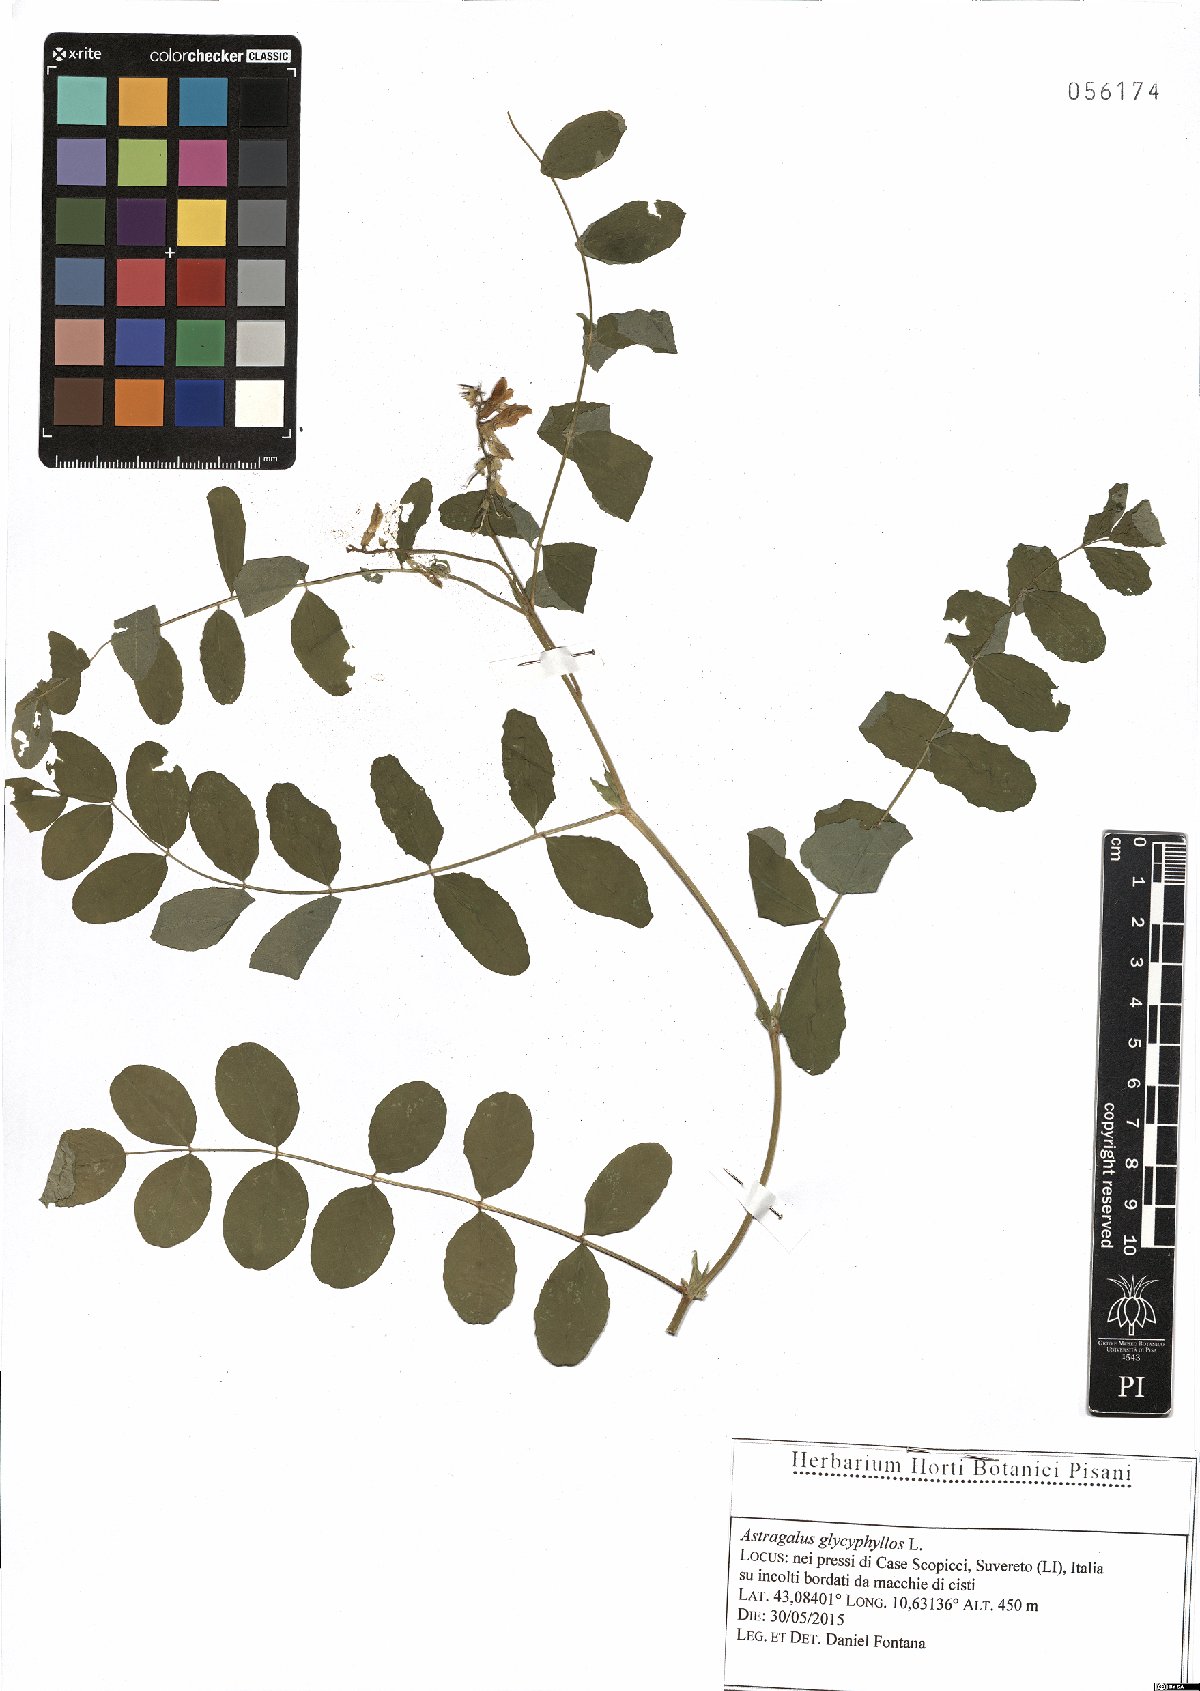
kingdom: Plantae
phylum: Tracheophyta
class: Magnoliopsida
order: Fabales
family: Fabaceae
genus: Astragalus
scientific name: Astragalus glycyphyllos
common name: Wild liquorice
